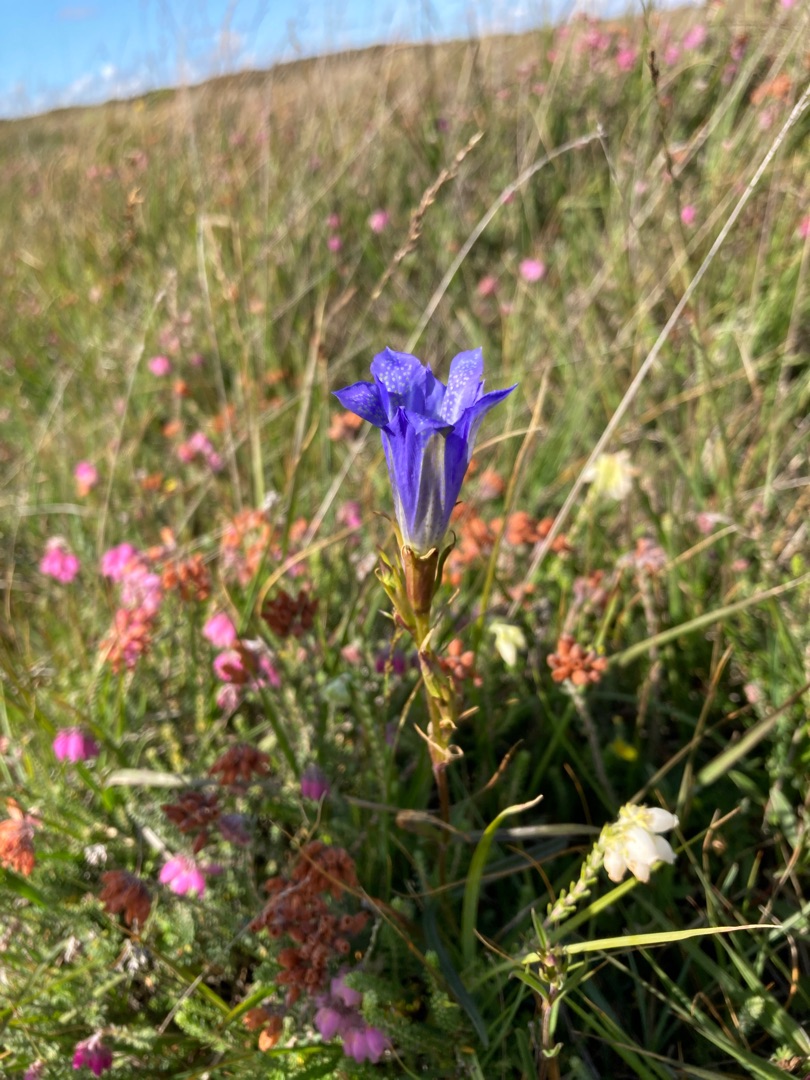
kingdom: Plantae
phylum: Tracheophyta
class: Magnoliopsida
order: Gentianales
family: Gentianaceae
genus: Gentiana
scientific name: Gentiana pneumonanthe
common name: Klokke-ensian
